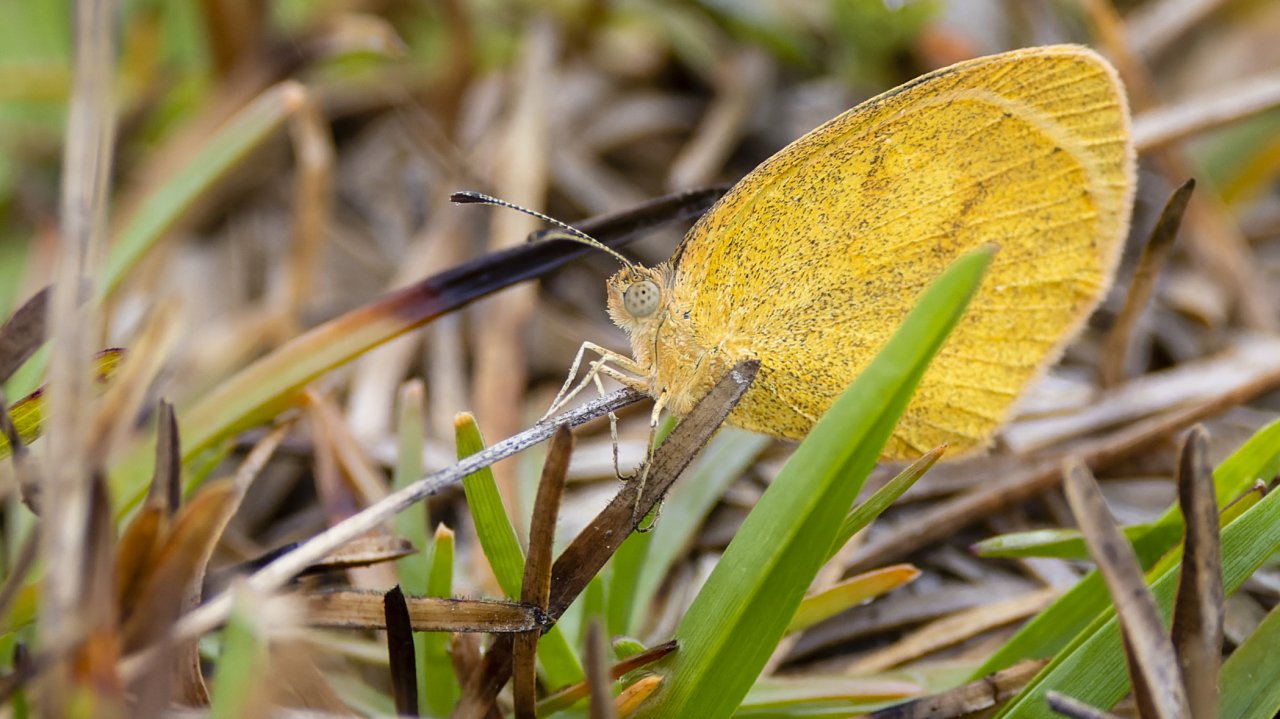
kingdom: Animalia
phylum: Arthropoda
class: Insecta
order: Lepidoptera
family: Pieridae
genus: Eurema
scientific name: Eurema daira
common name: Barred Yellow
